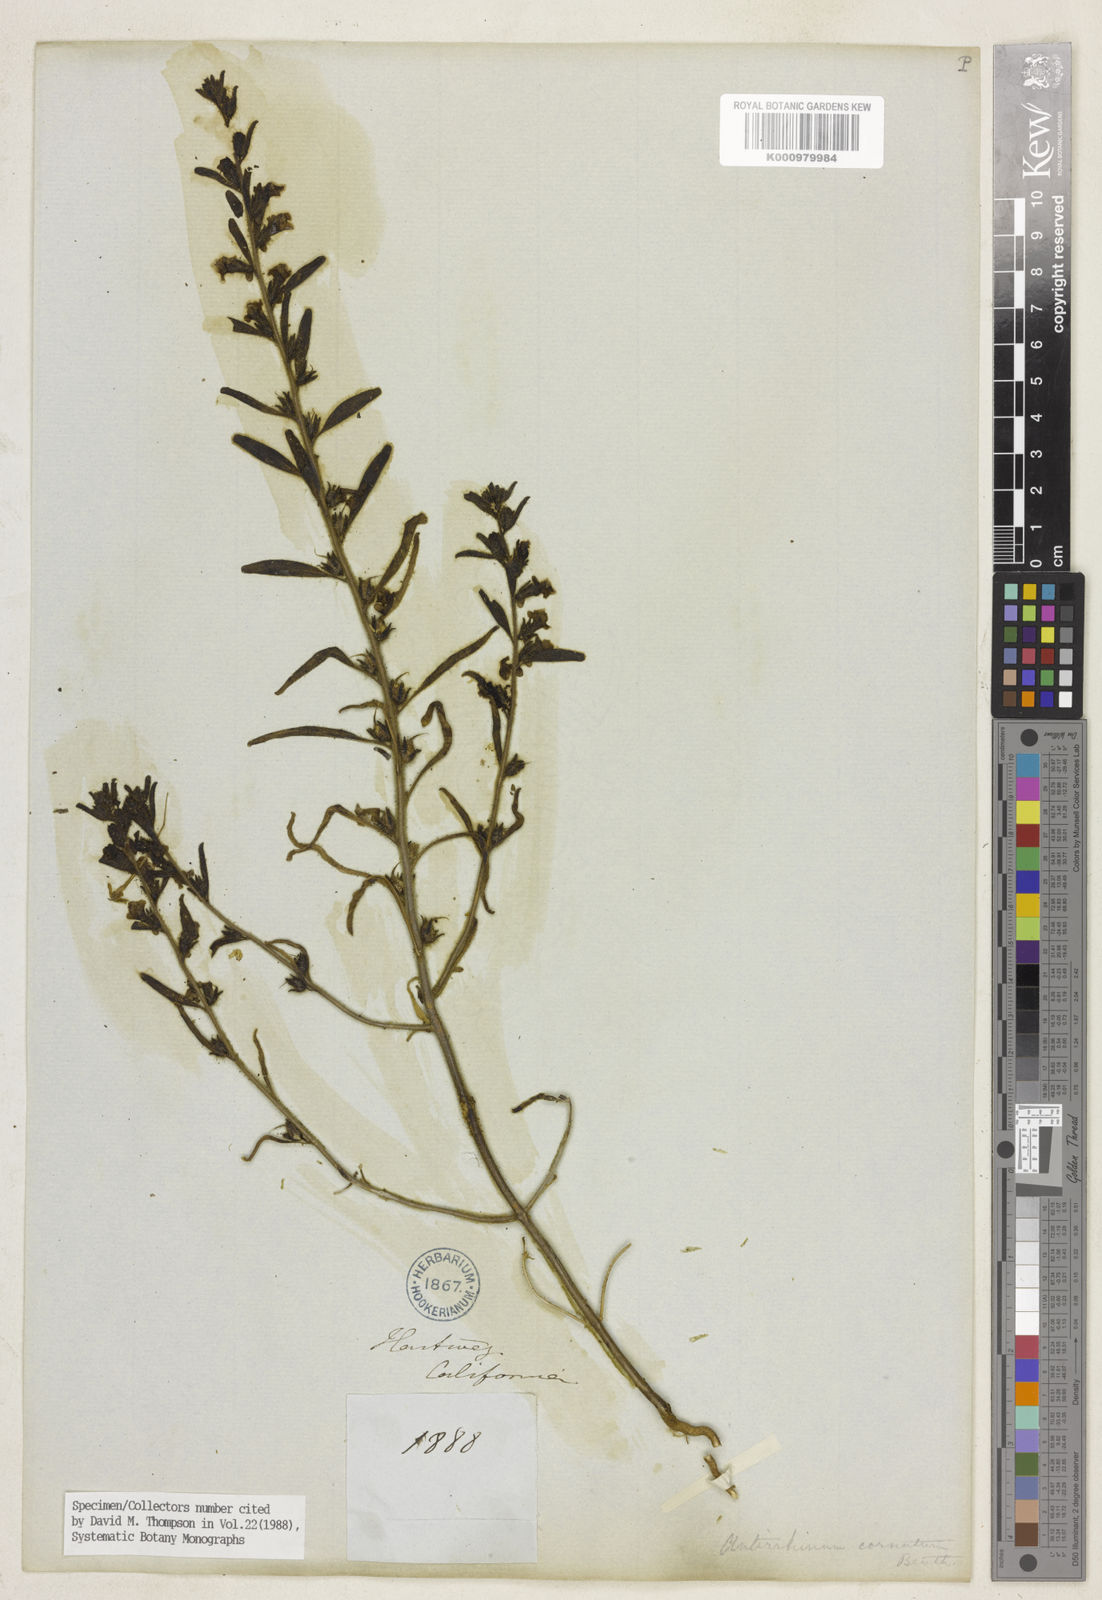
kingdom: Plantae
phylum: Tracheophyta
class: Magnoliopsida
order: Lamiales
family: Plantaginaceae
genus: Sairocarpus
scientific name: Sairocarpus cornutus
